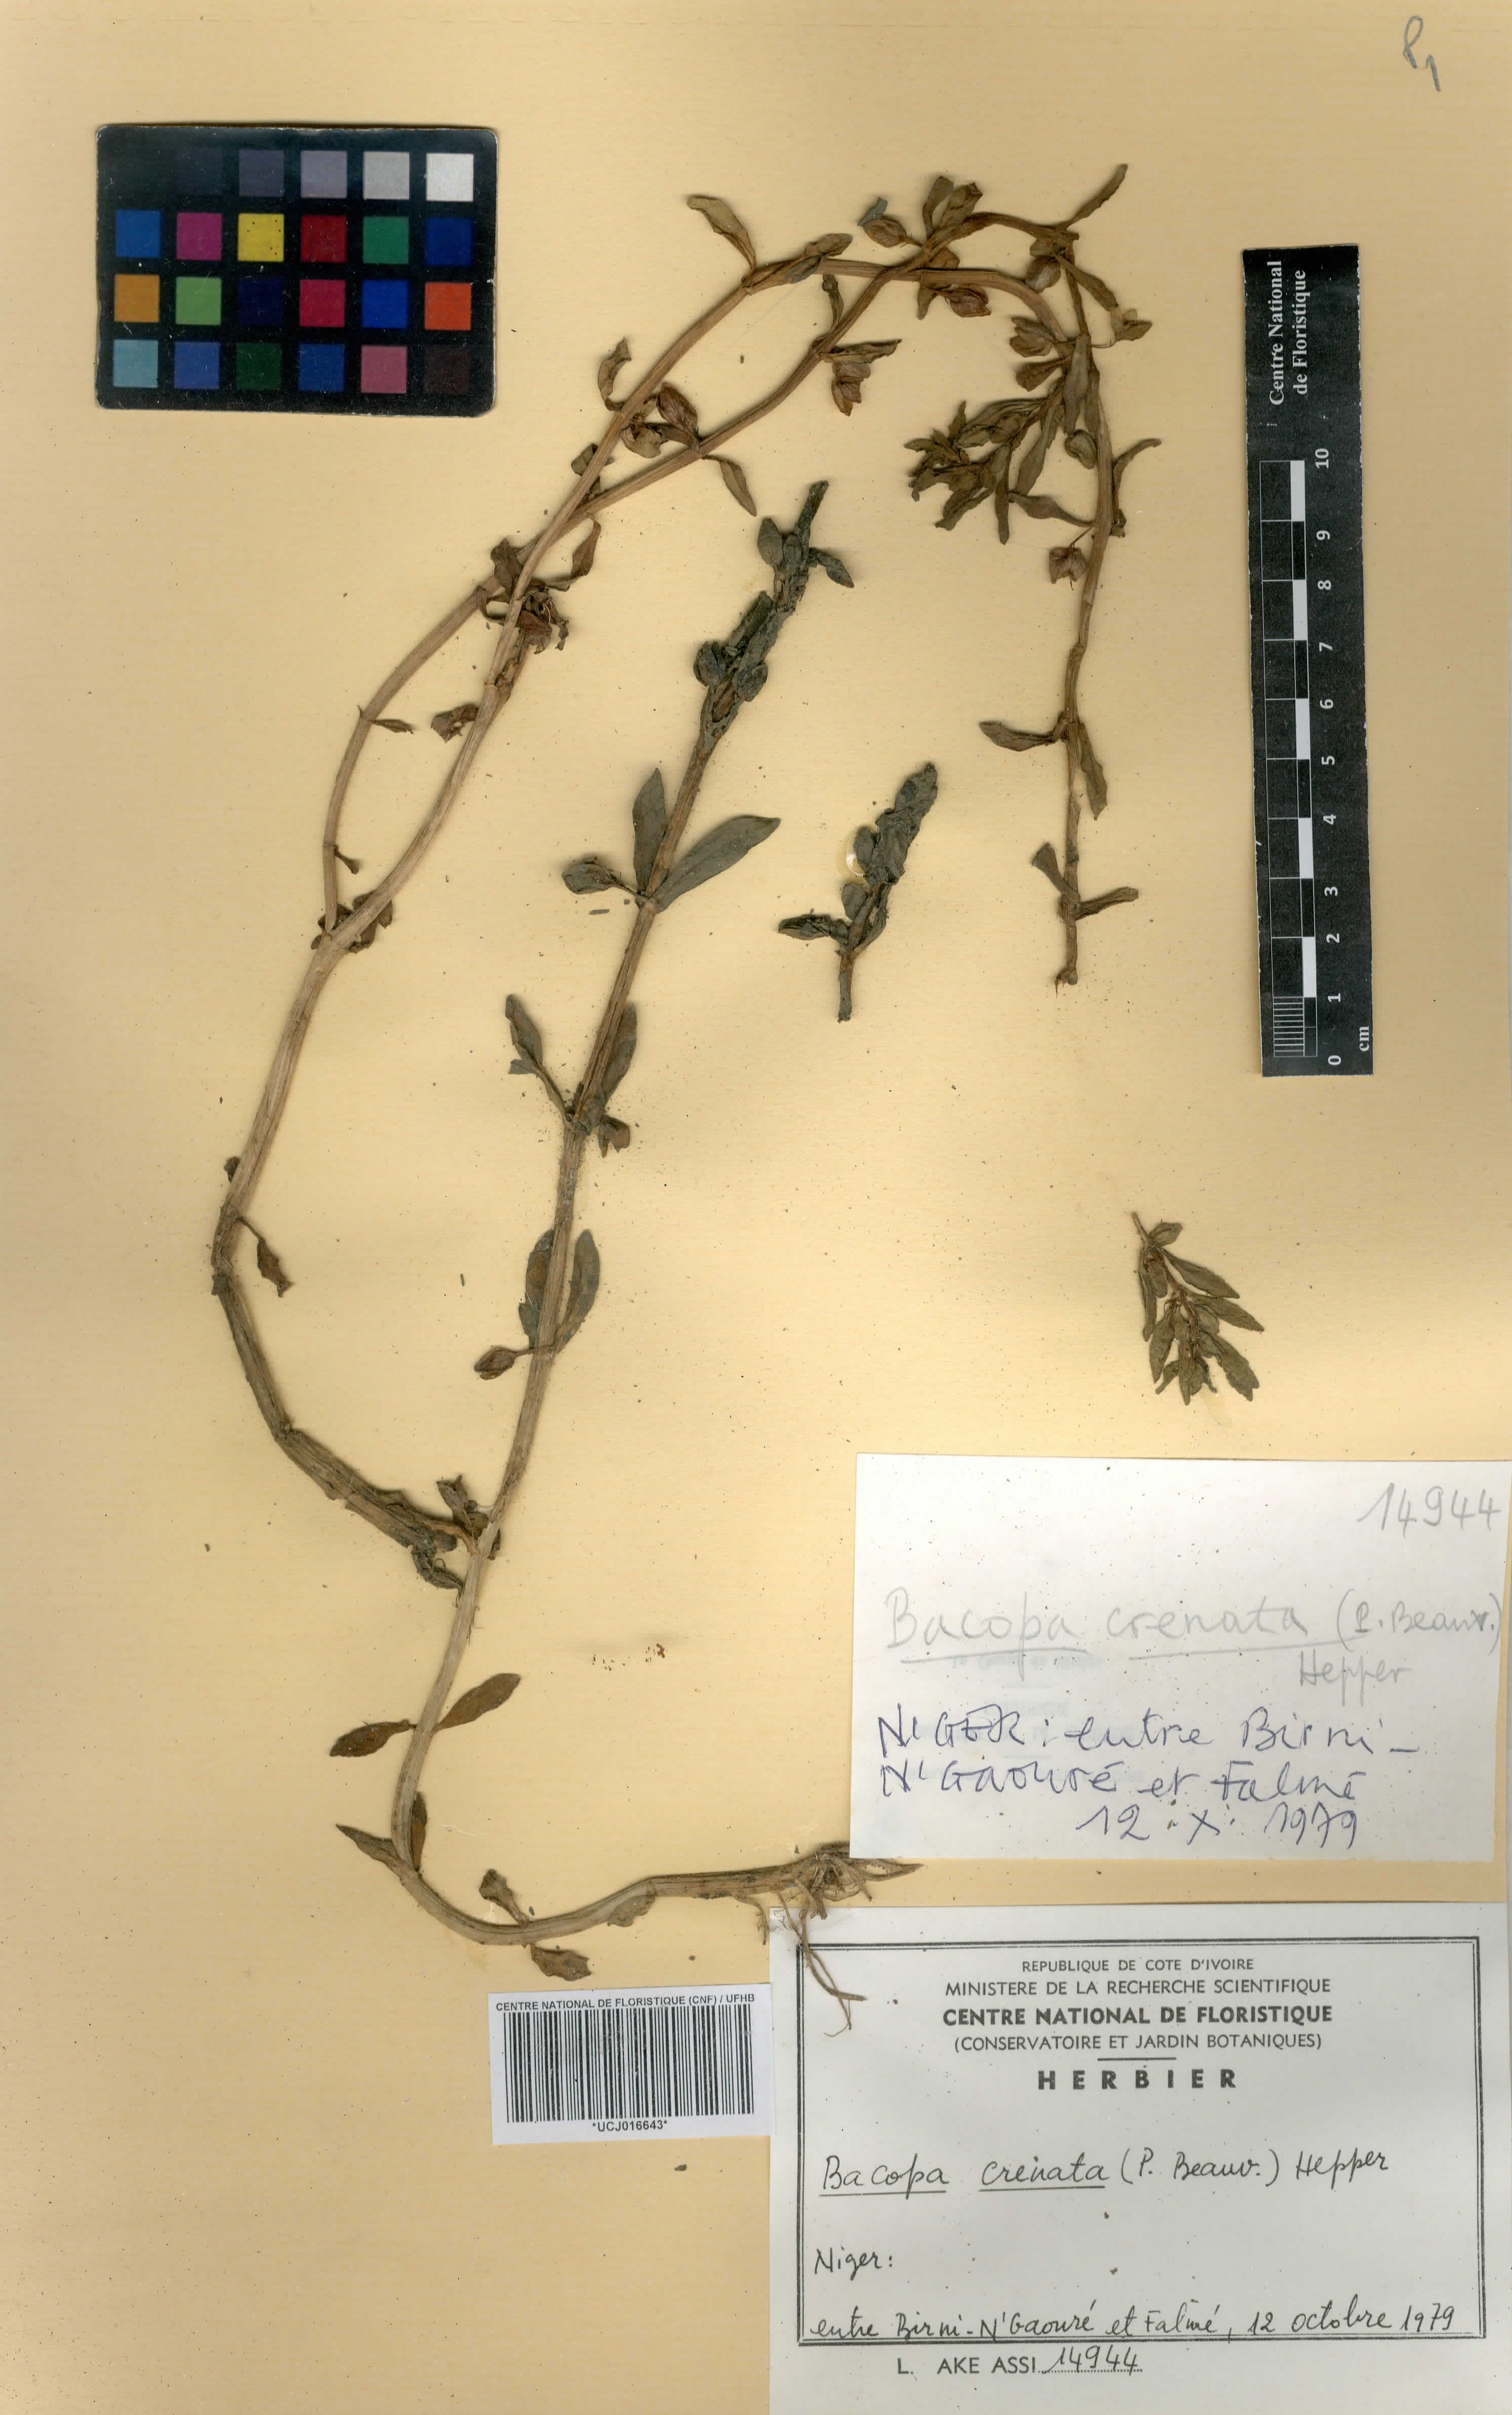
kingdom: Plantae
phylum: Tracheophyta
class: Magnoliopsida
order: Lamiales
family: Plantaginaceae
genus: Bacopa
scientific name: Bacopa crenata
